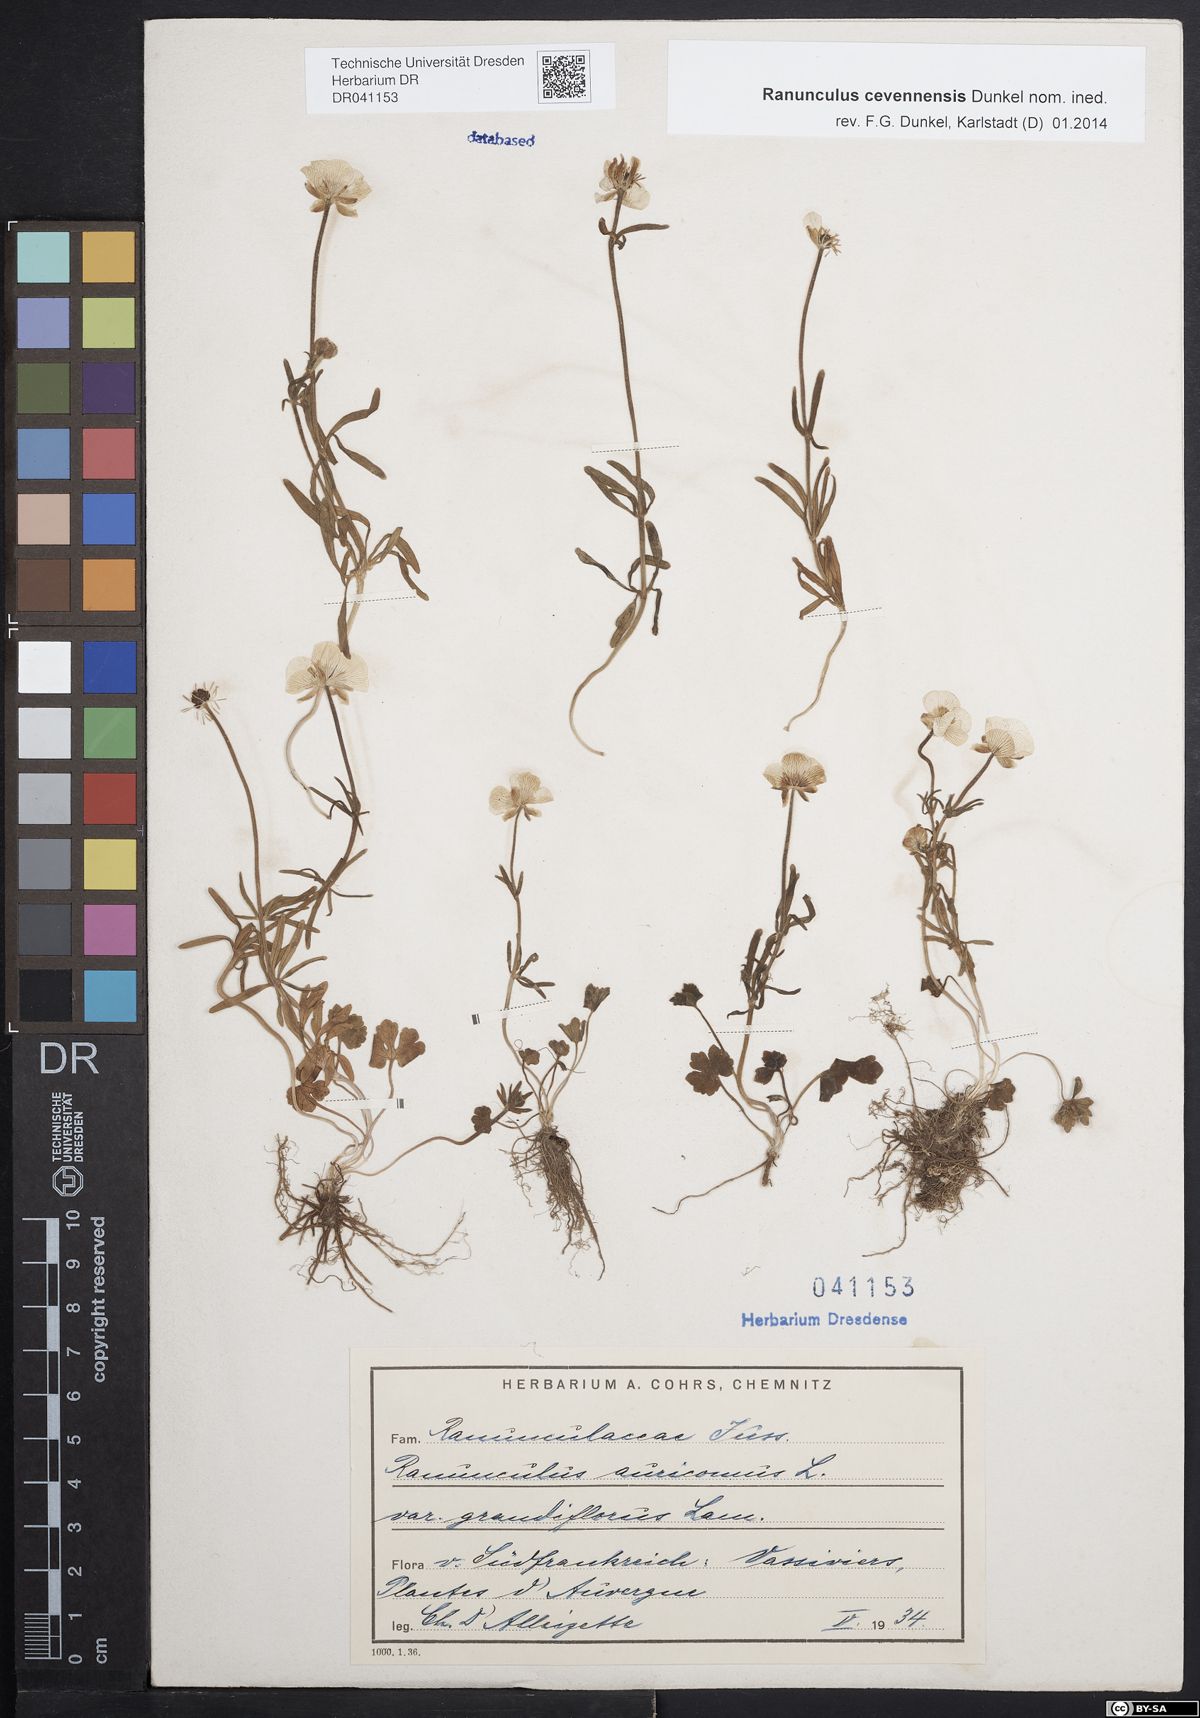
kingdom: Plantae
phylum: Tracheophyta
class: Magnoliopsida
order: Ranunculales
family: Ranunculaceae
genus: Ranunculus
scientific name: Ranunculus auricomus
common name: Goldilocks buttercup
